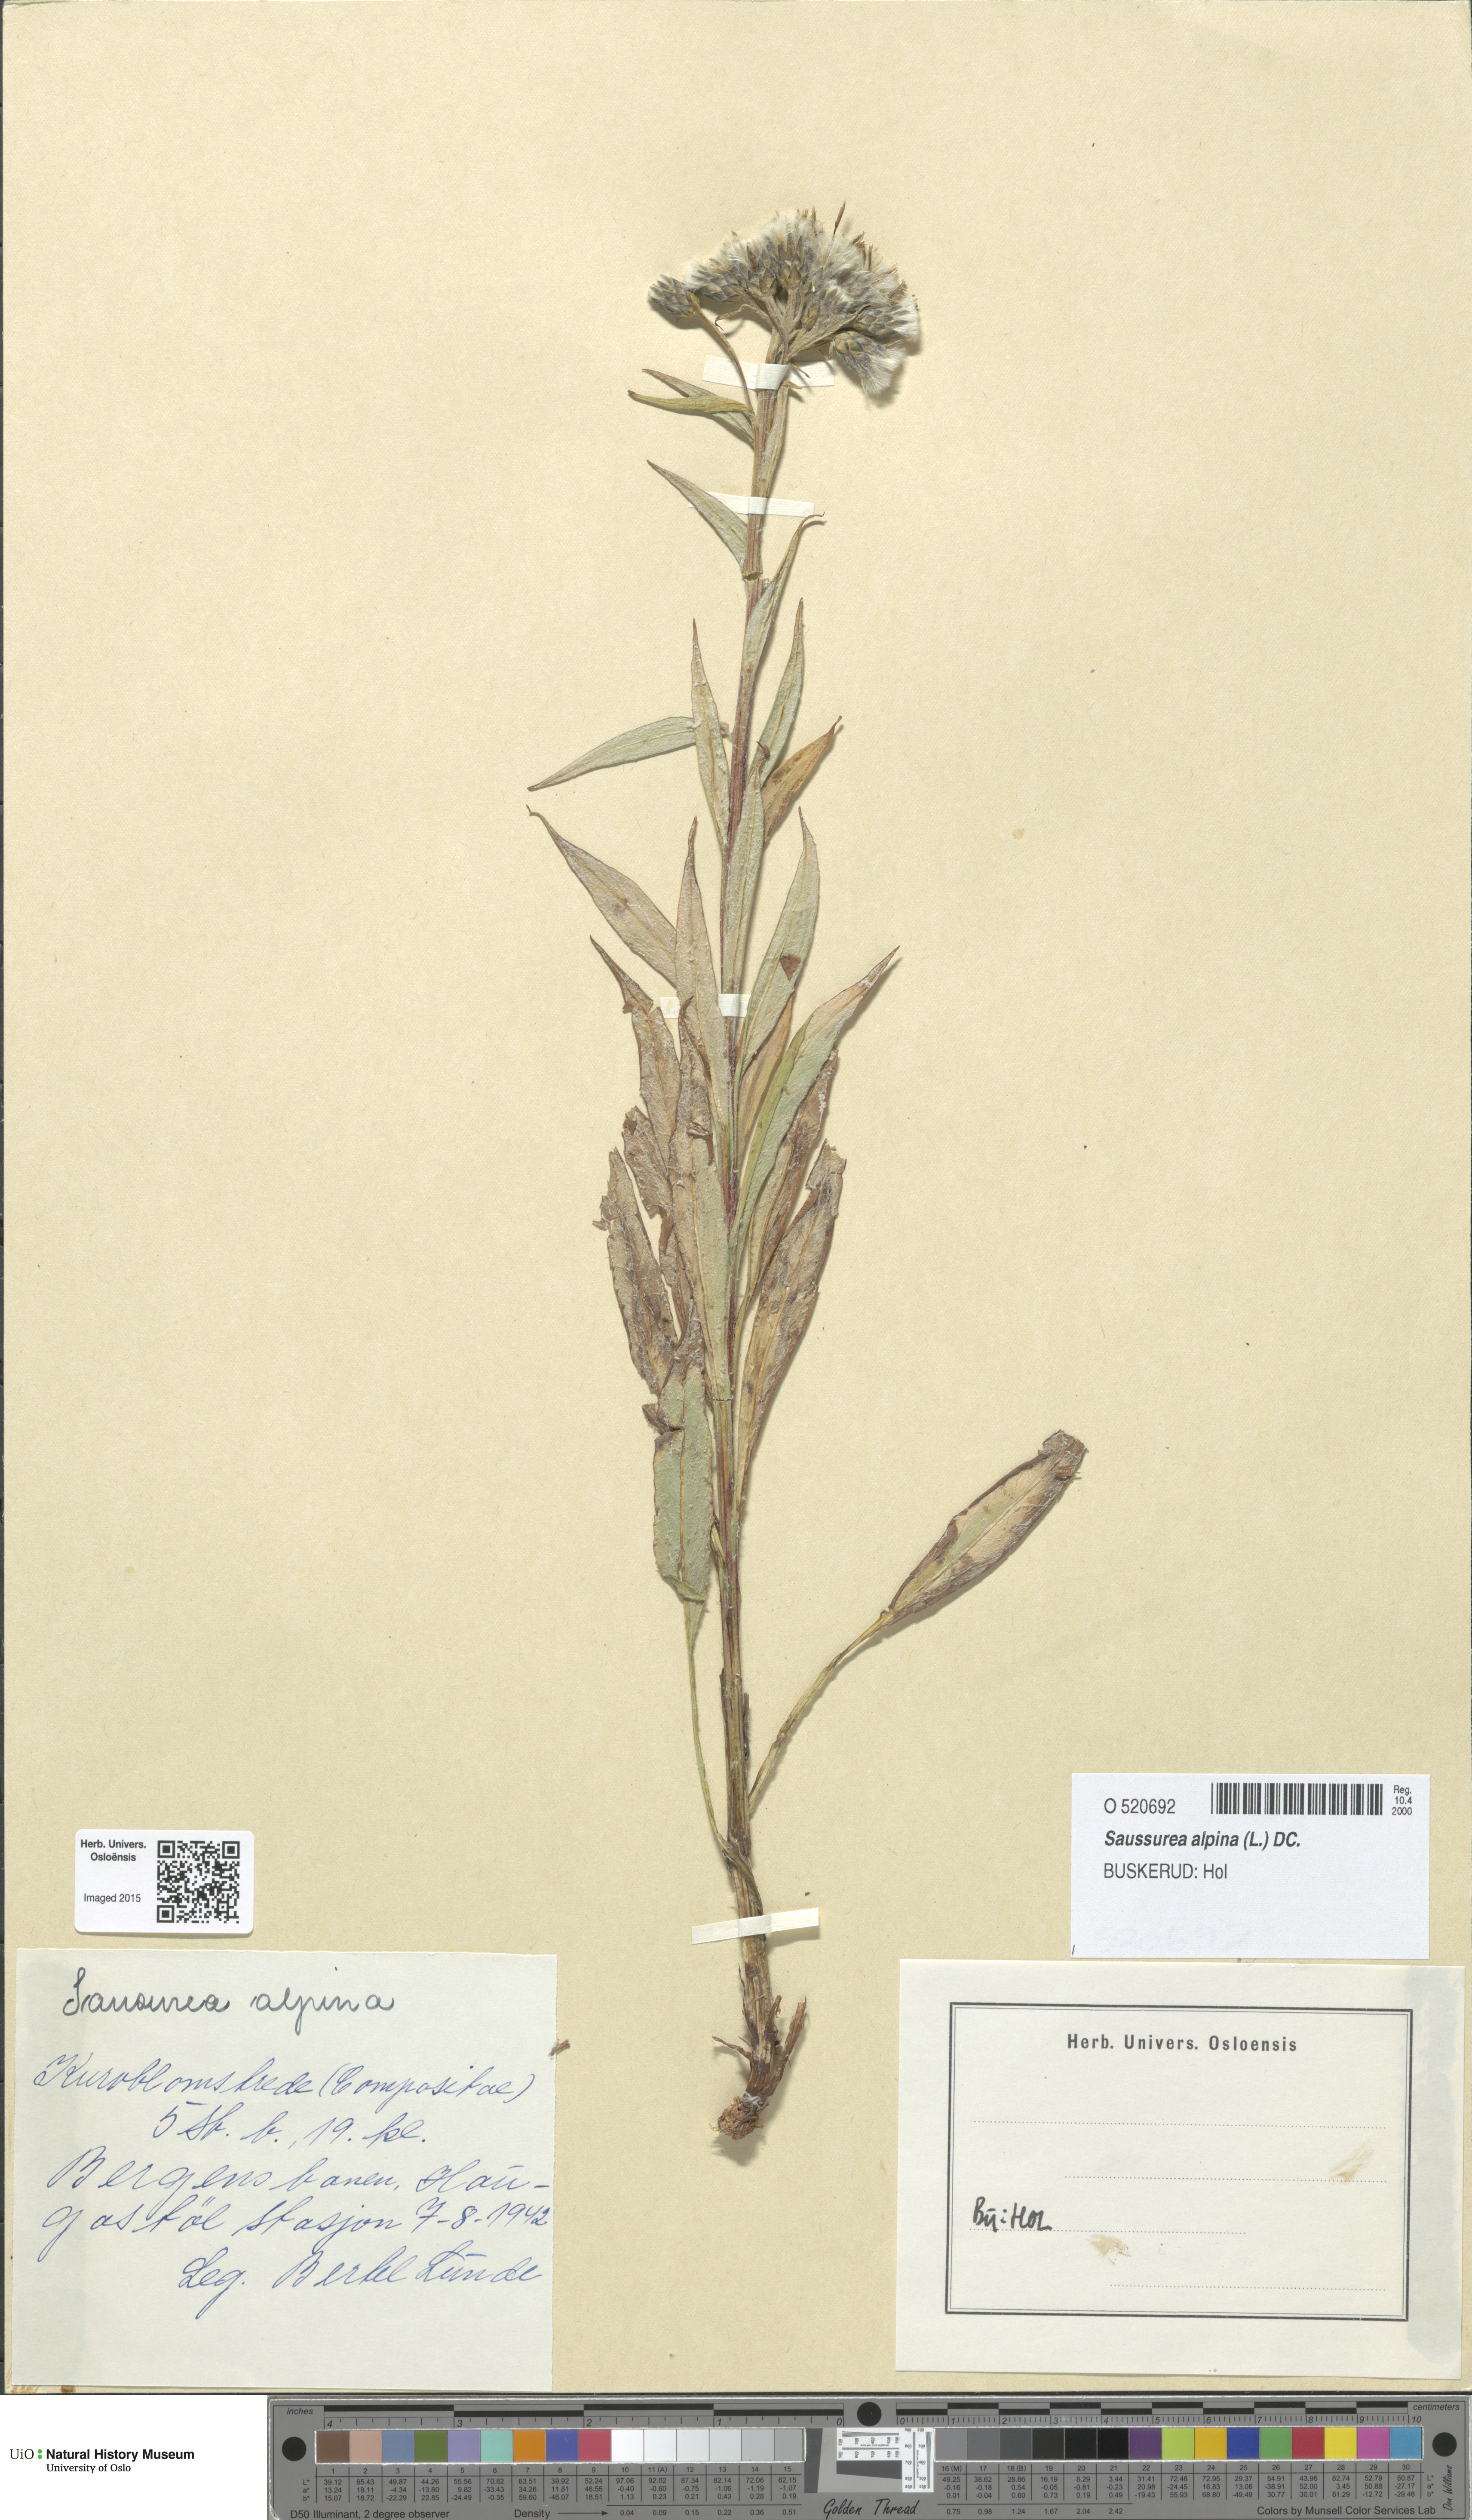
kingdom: Plantae
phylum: Tracheophyta
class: Magnoliopsida
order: Asterales
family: Asteraceae
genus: Saussurea
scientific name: Saussurea alpina
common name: Alpine saw-wort
